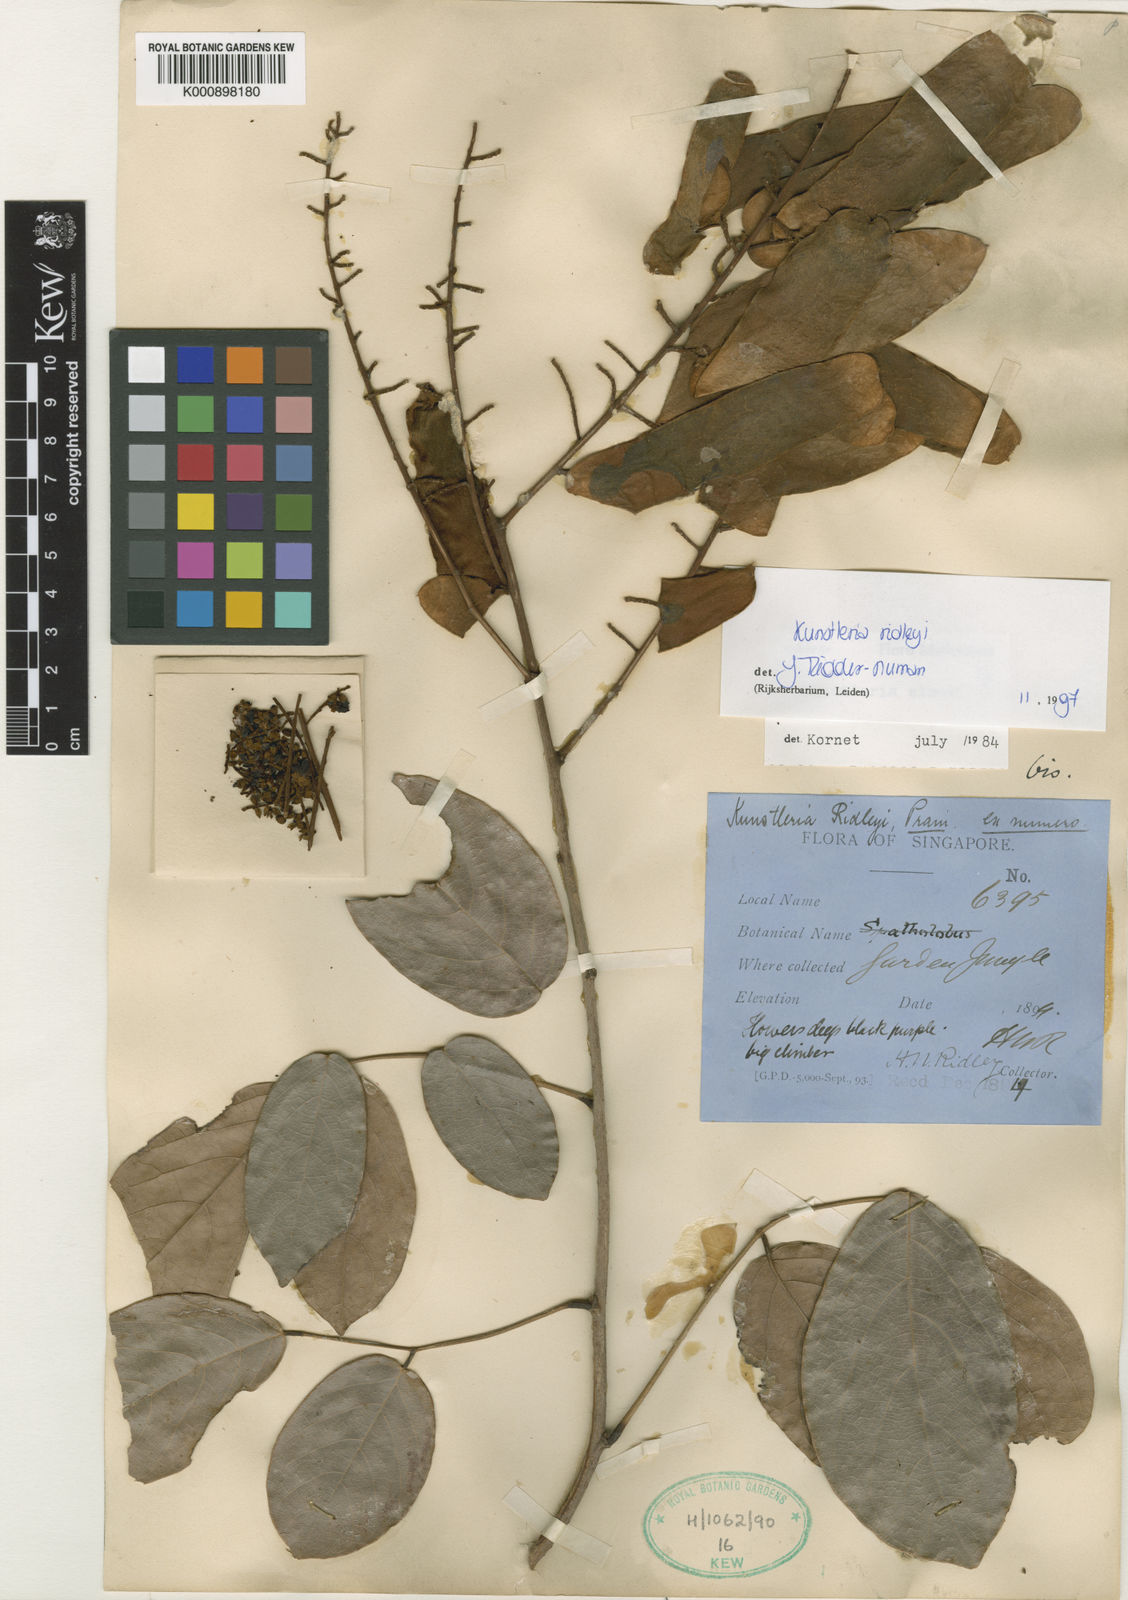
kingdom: Plantae
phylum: Tracheophyta
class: Magnoliopsida
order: Fabales
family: Fabaceae
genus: Kunstleria
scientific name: Kunstleria ridleyi
